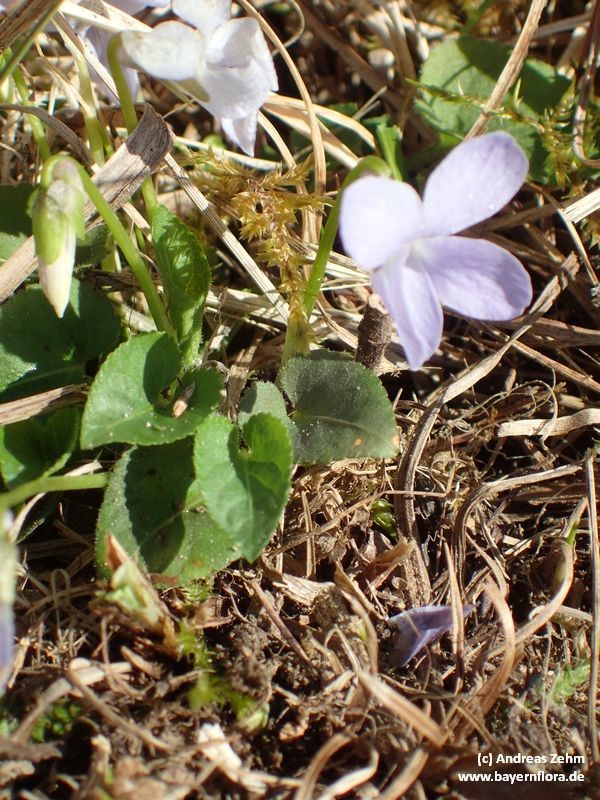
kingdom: Plantae
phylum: Tracheophyta
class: Magnoliopsida
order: Malpighiales
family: Violaceae
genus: Viola
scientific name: Viola hirta
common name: Hairy violet
